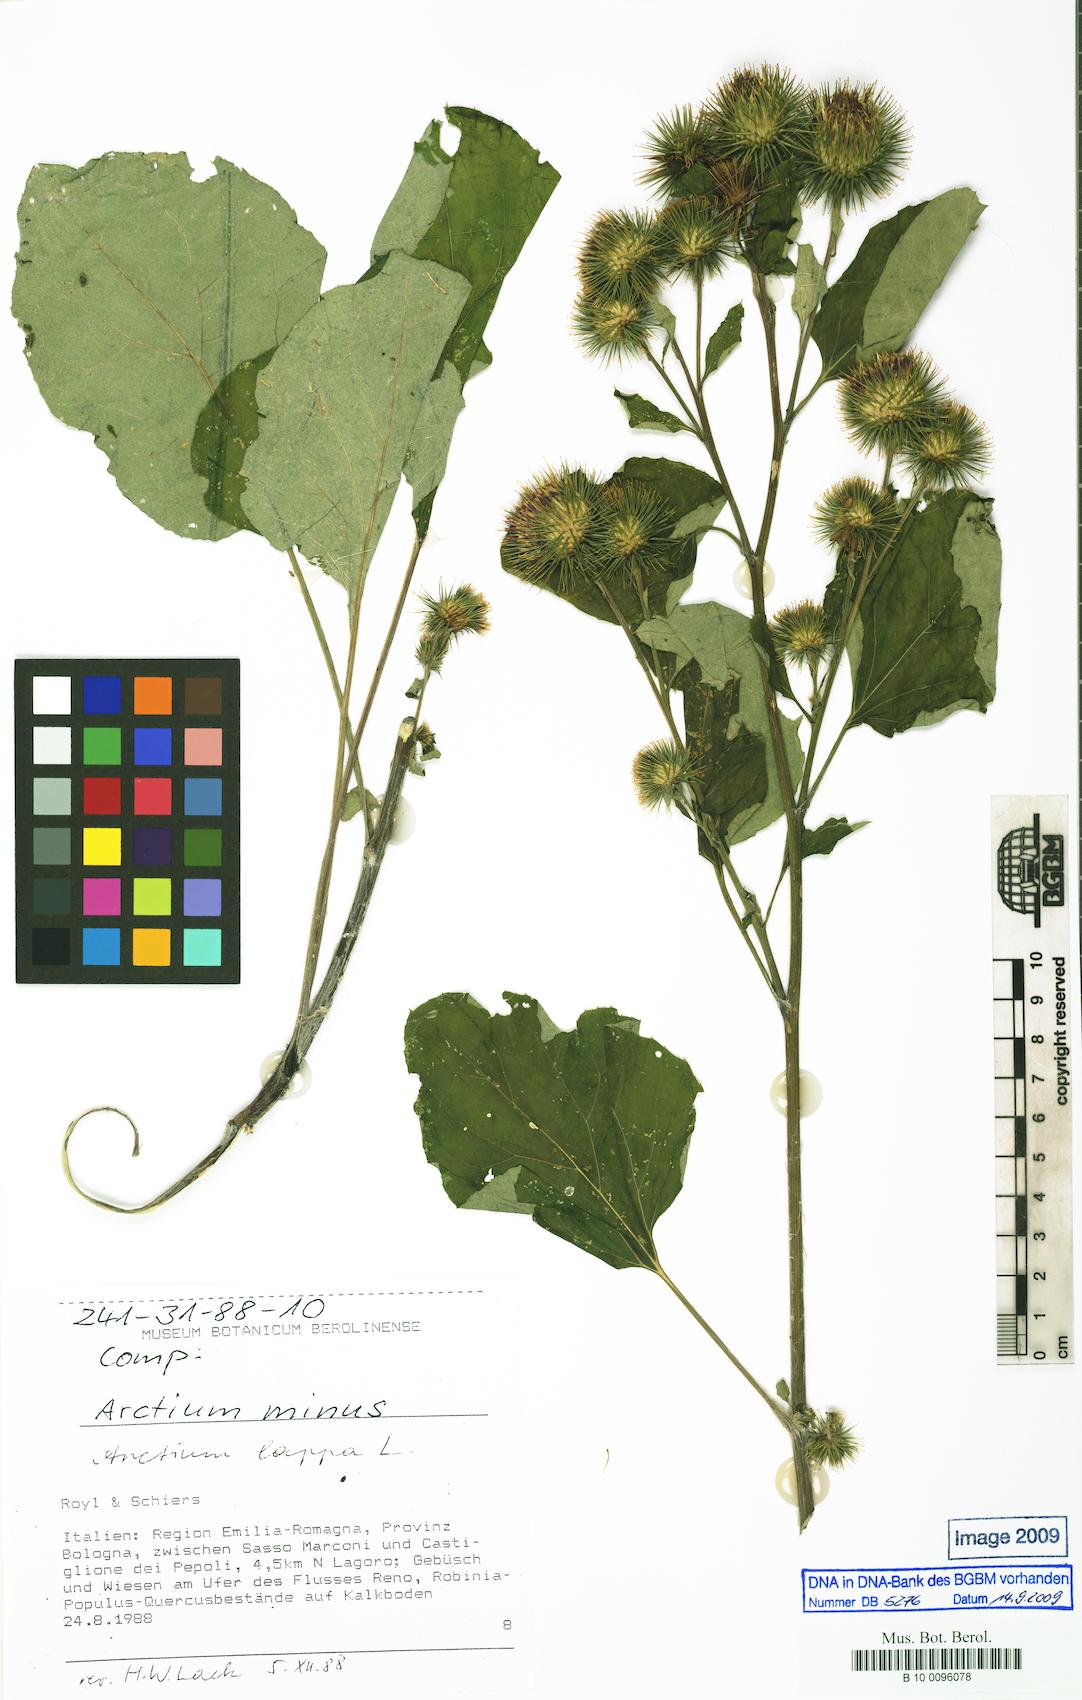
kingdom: Plantae
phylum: Tracheophyta
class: Magnoliopsida
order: Asterales
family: Asteraceae
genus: Arctium
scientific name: Arctium lappa
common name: Greater burdock
